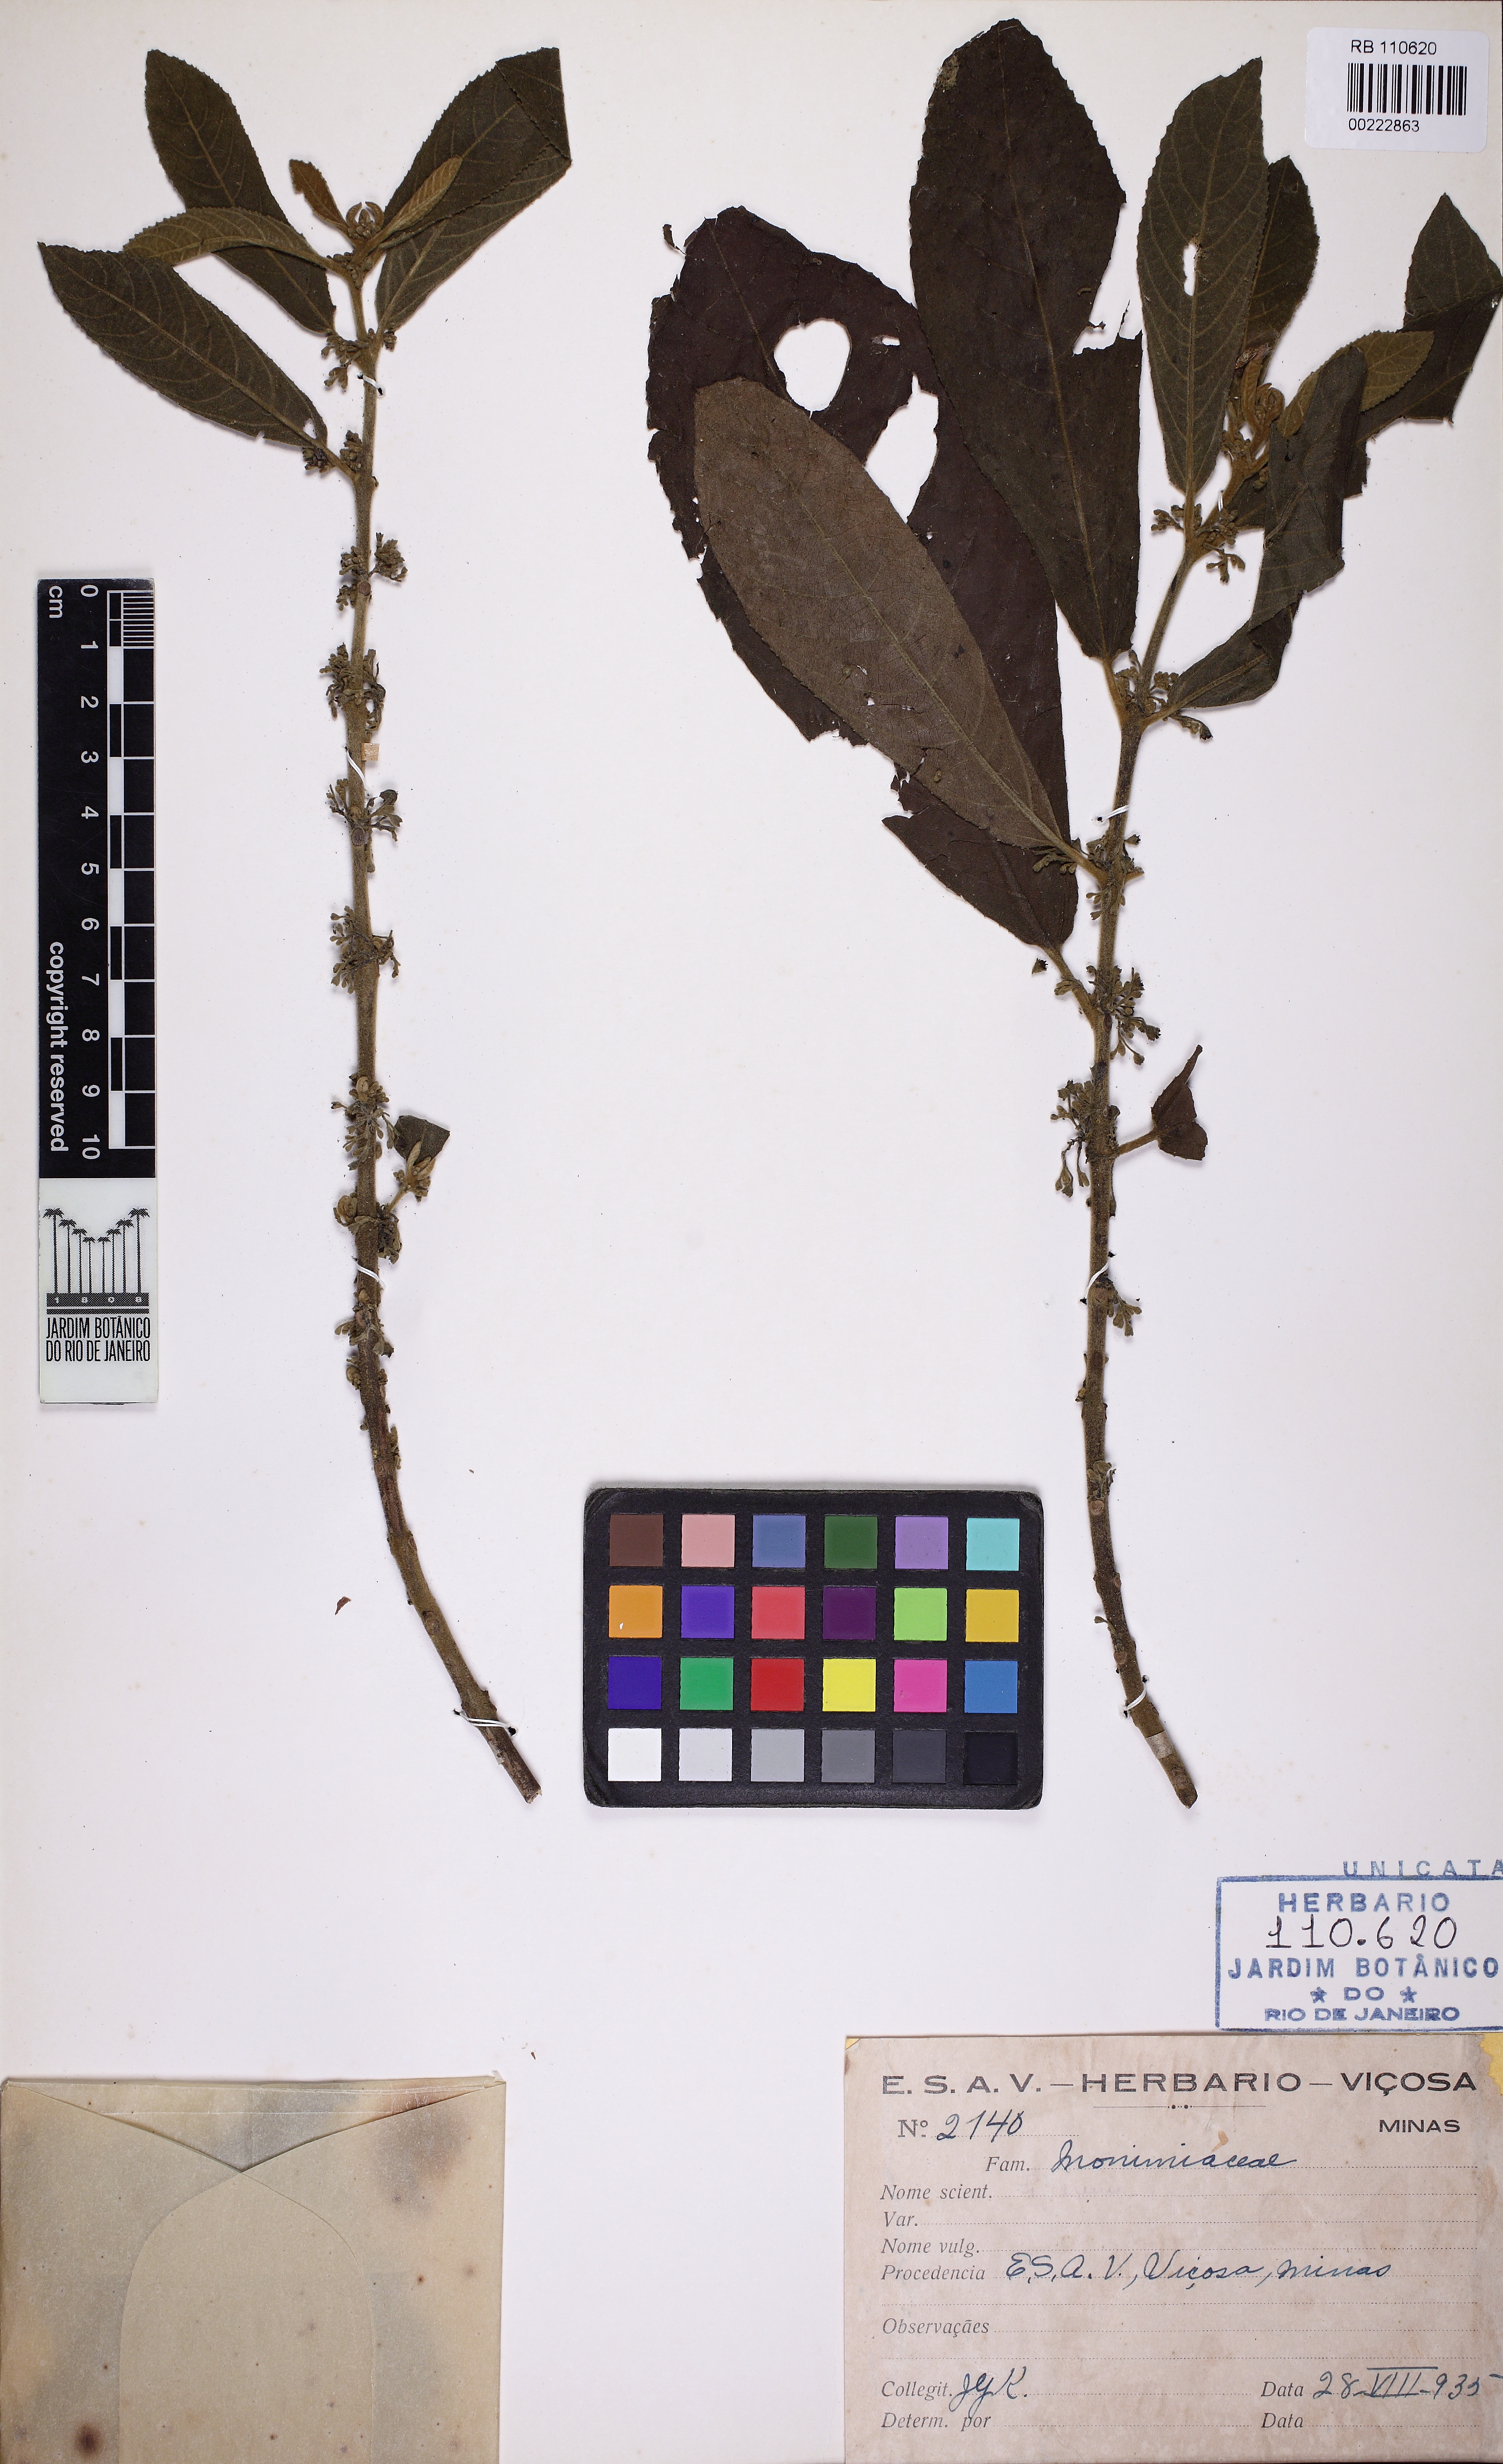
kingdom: Plantae
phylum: Tracheophyta
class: Magnoliopsida
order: Laurales
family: Siparunaceae
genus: Siparuna
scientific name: Siparuna brasiliensis
